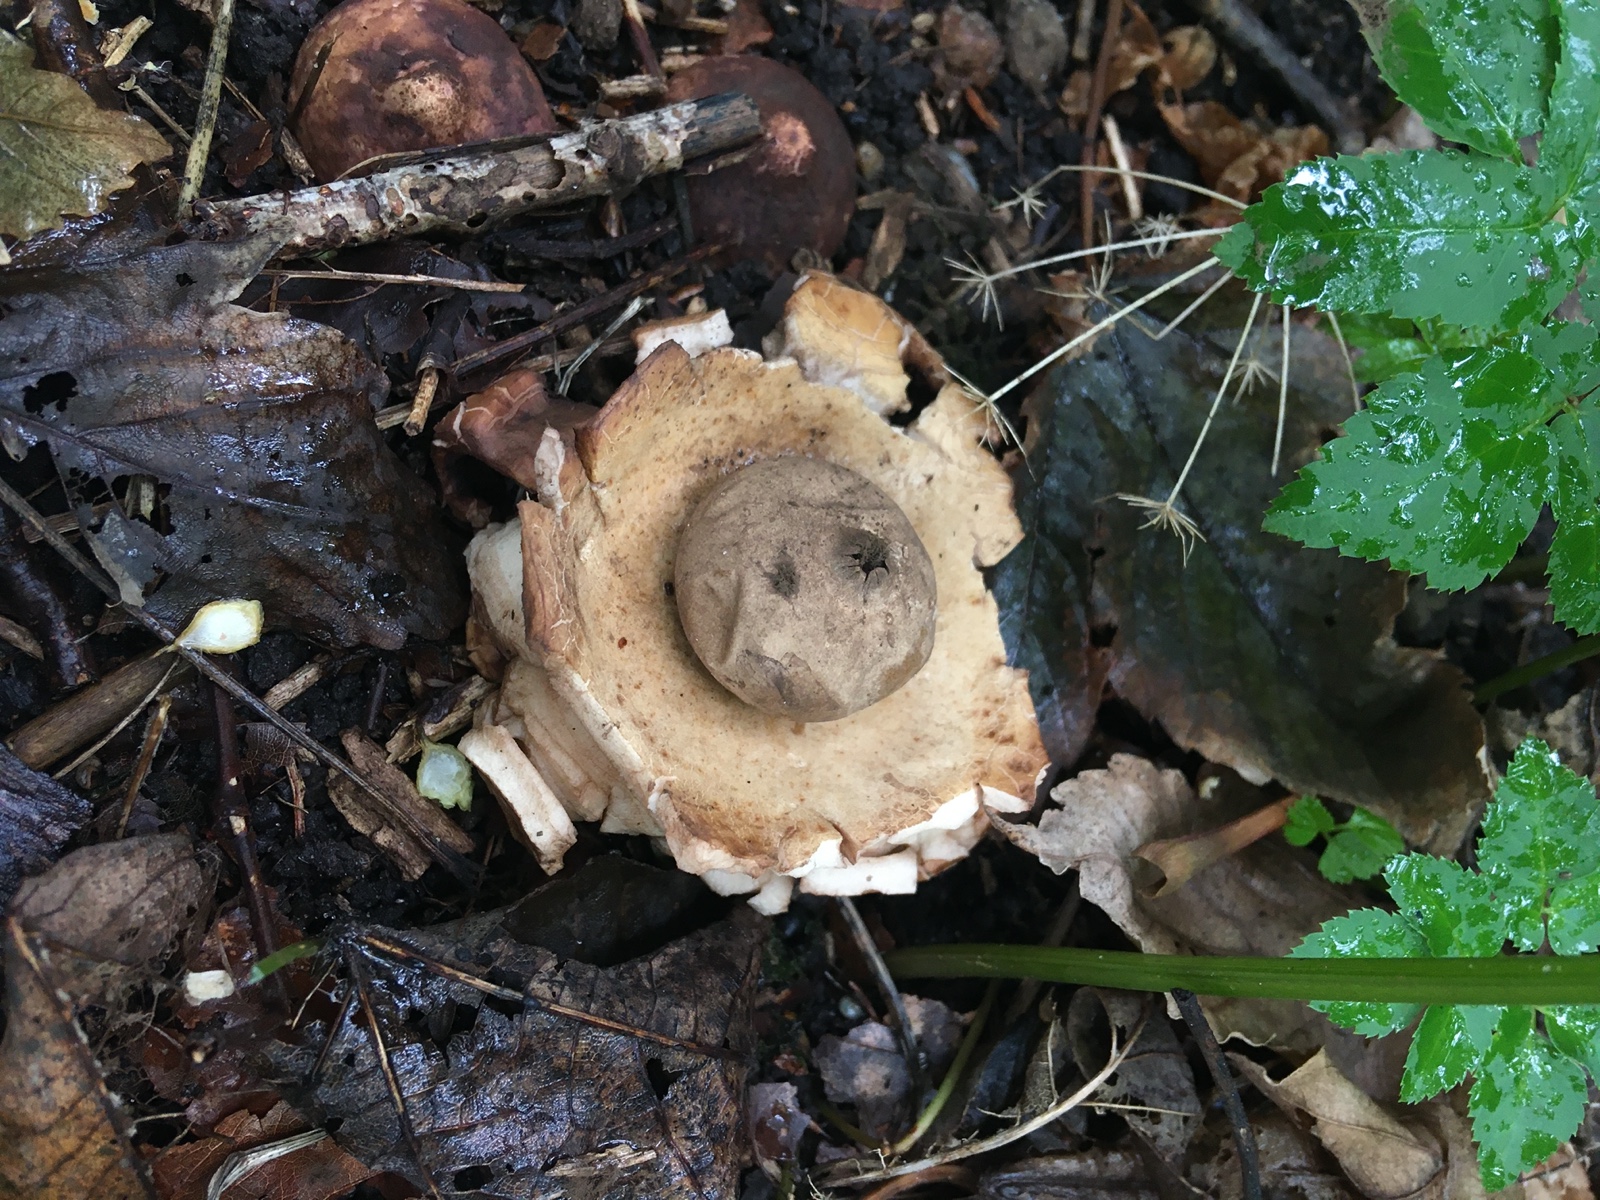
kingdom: Fungi
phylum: Basidiomycota
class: Agaricomycetes
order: Geastrales
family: Geastraceae
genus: Geastrum
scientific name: Geastrum michelianum
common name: kødet stjernebold
